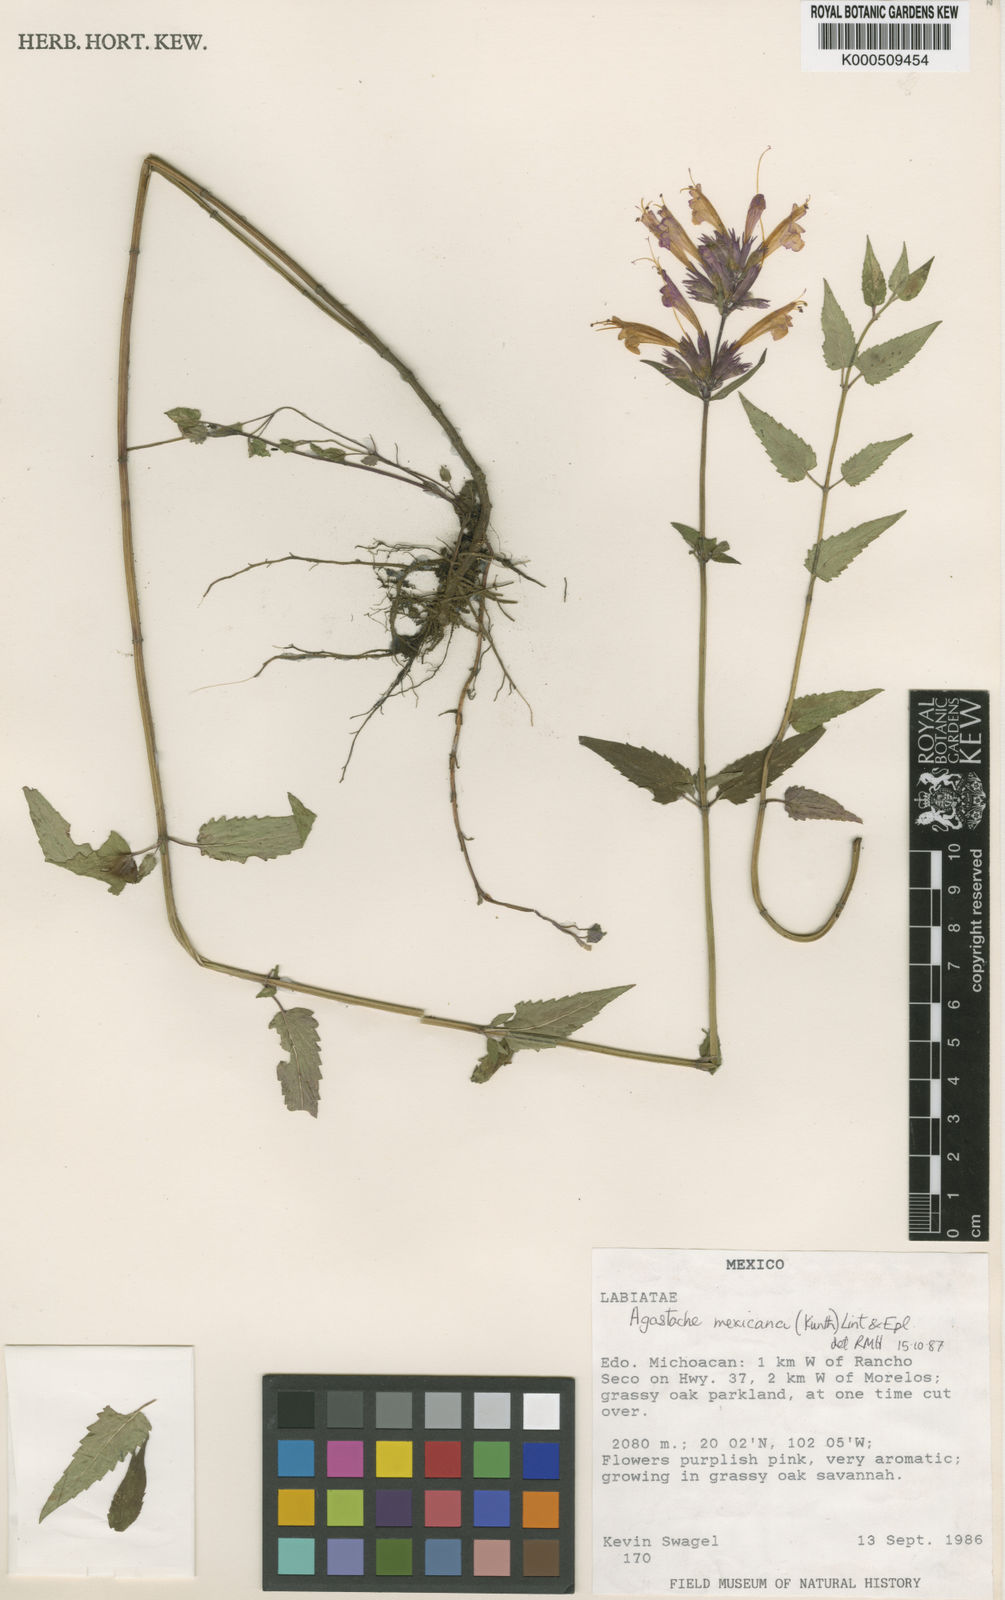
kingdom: Plantae
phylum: Tracheophyta
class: Magnoliopsida
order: Lamiales
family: Lamiaceae
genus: Agastache
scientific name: Agastache mexicana
